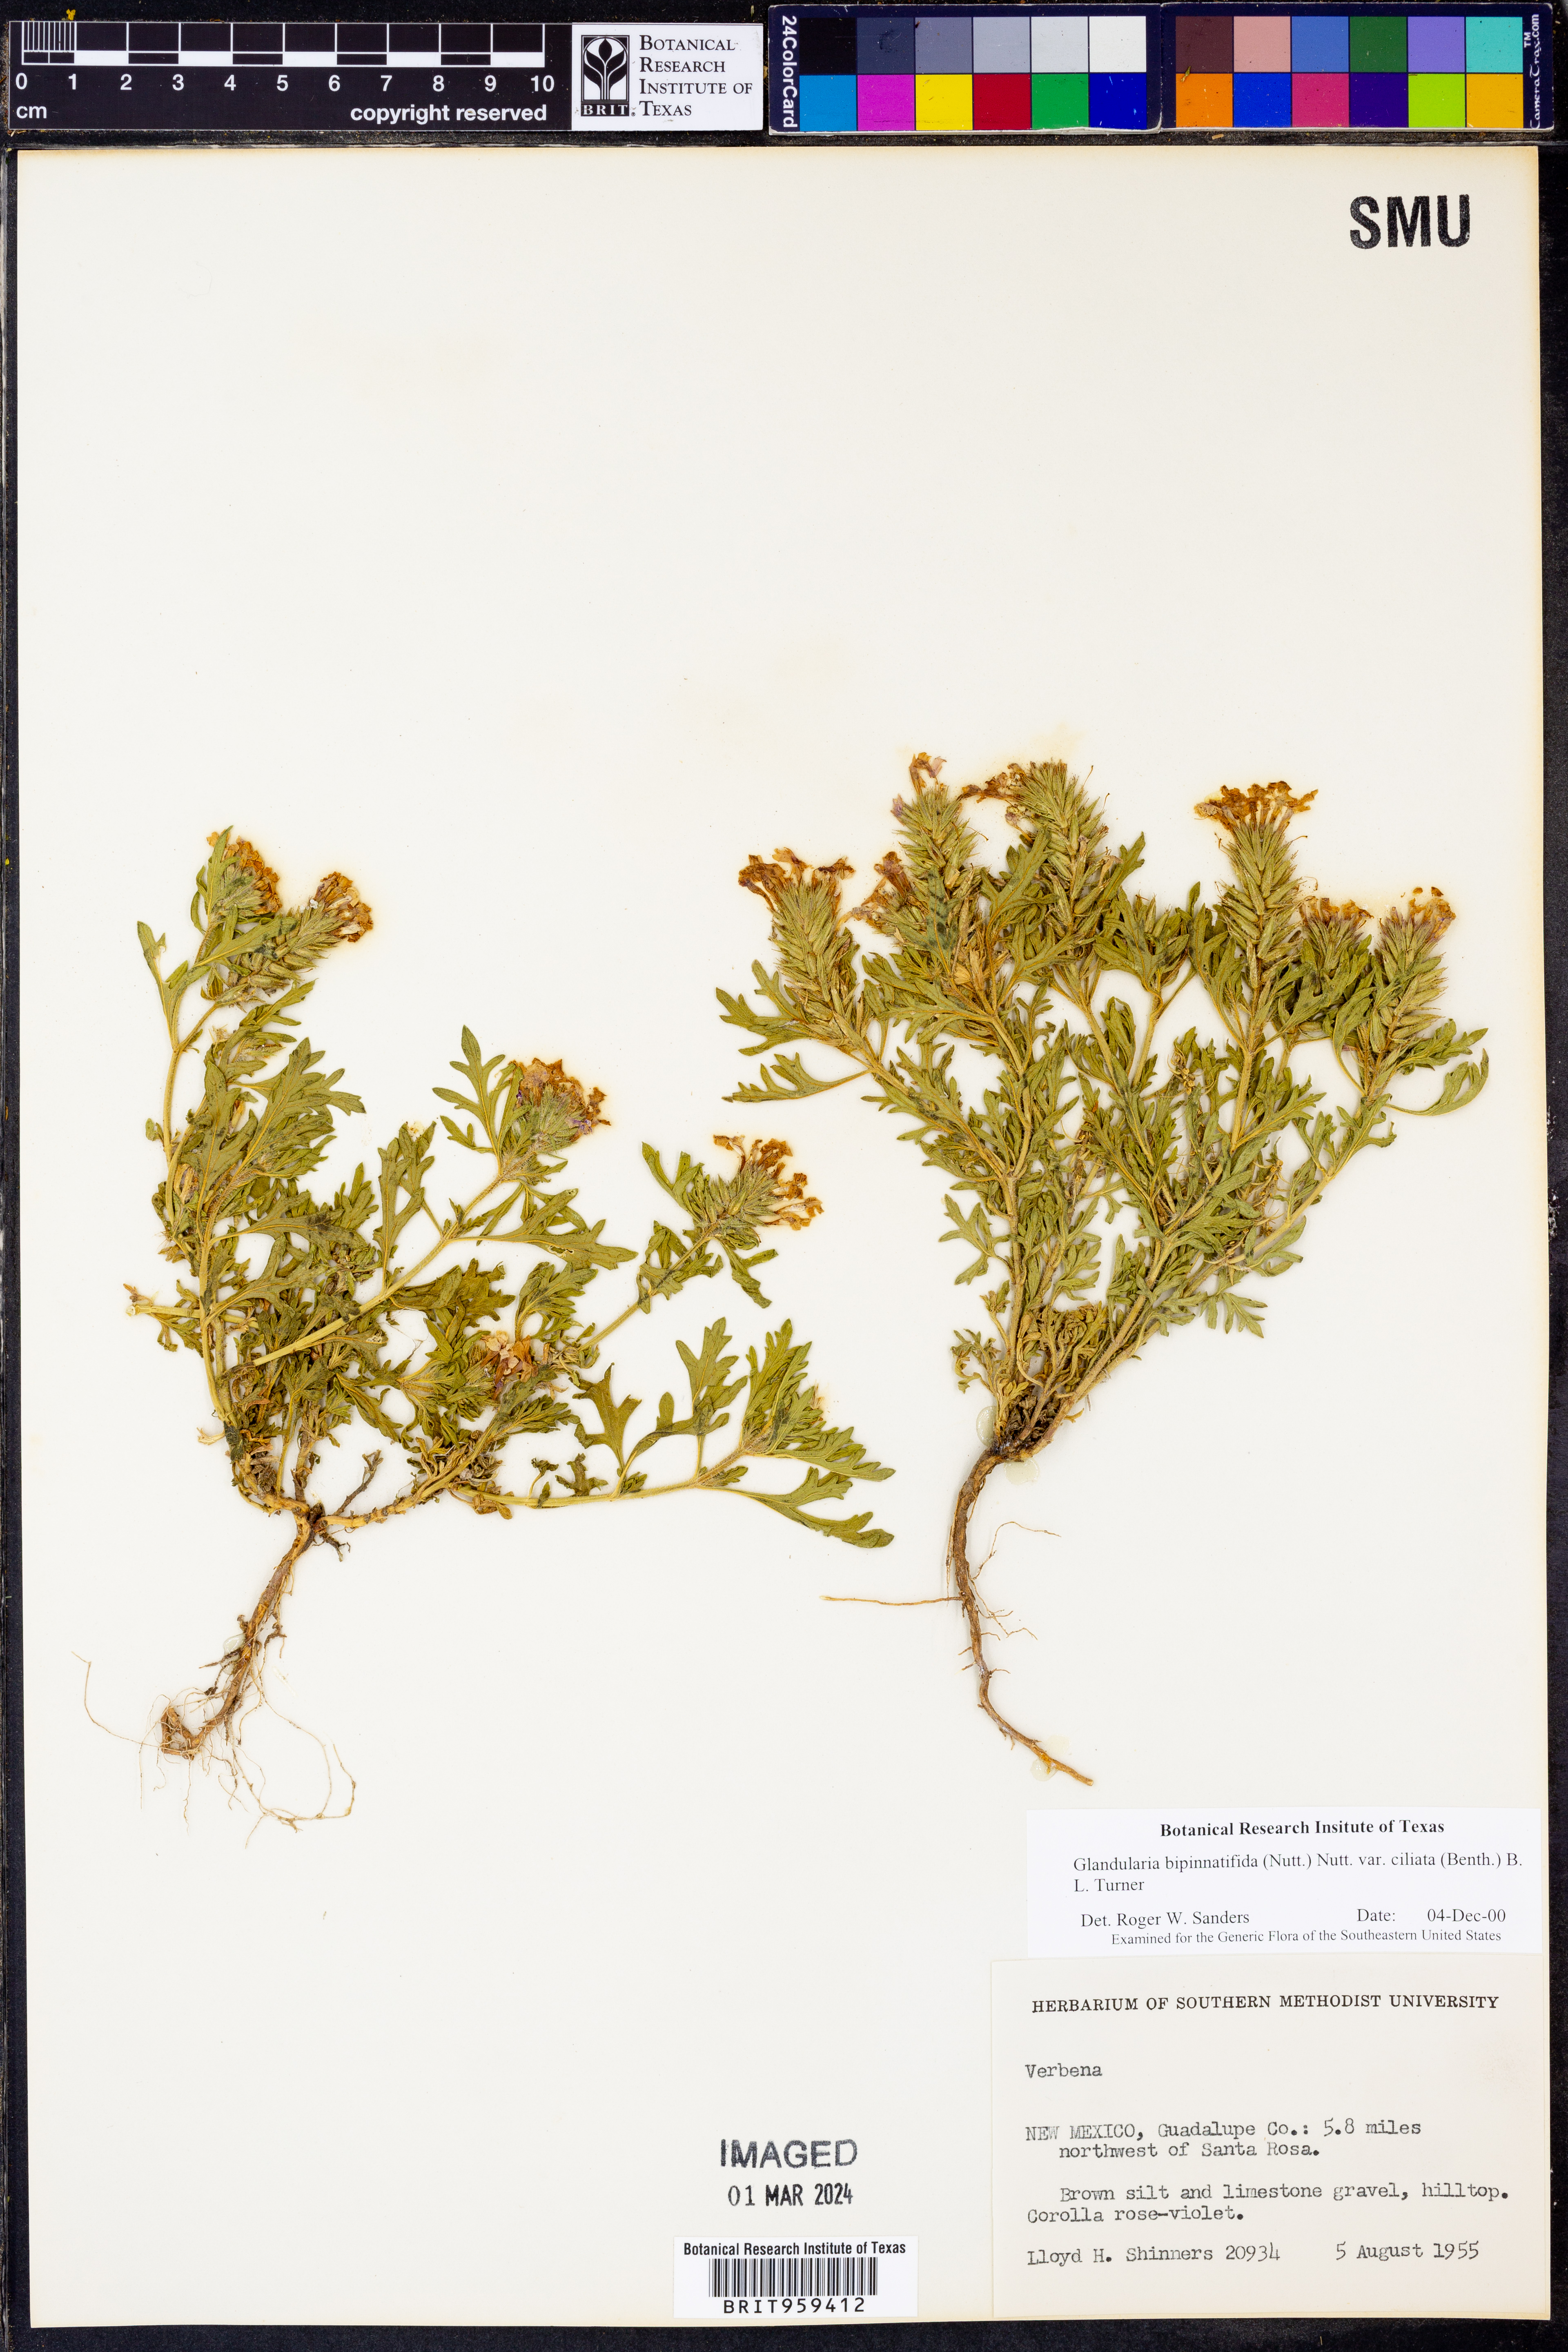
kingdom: Plantae
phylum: Tracheophyta
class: Magnoliopsida
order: Lamiales
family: Verbenaceae
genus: Verbena
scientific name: Verbena bipinnatifida
